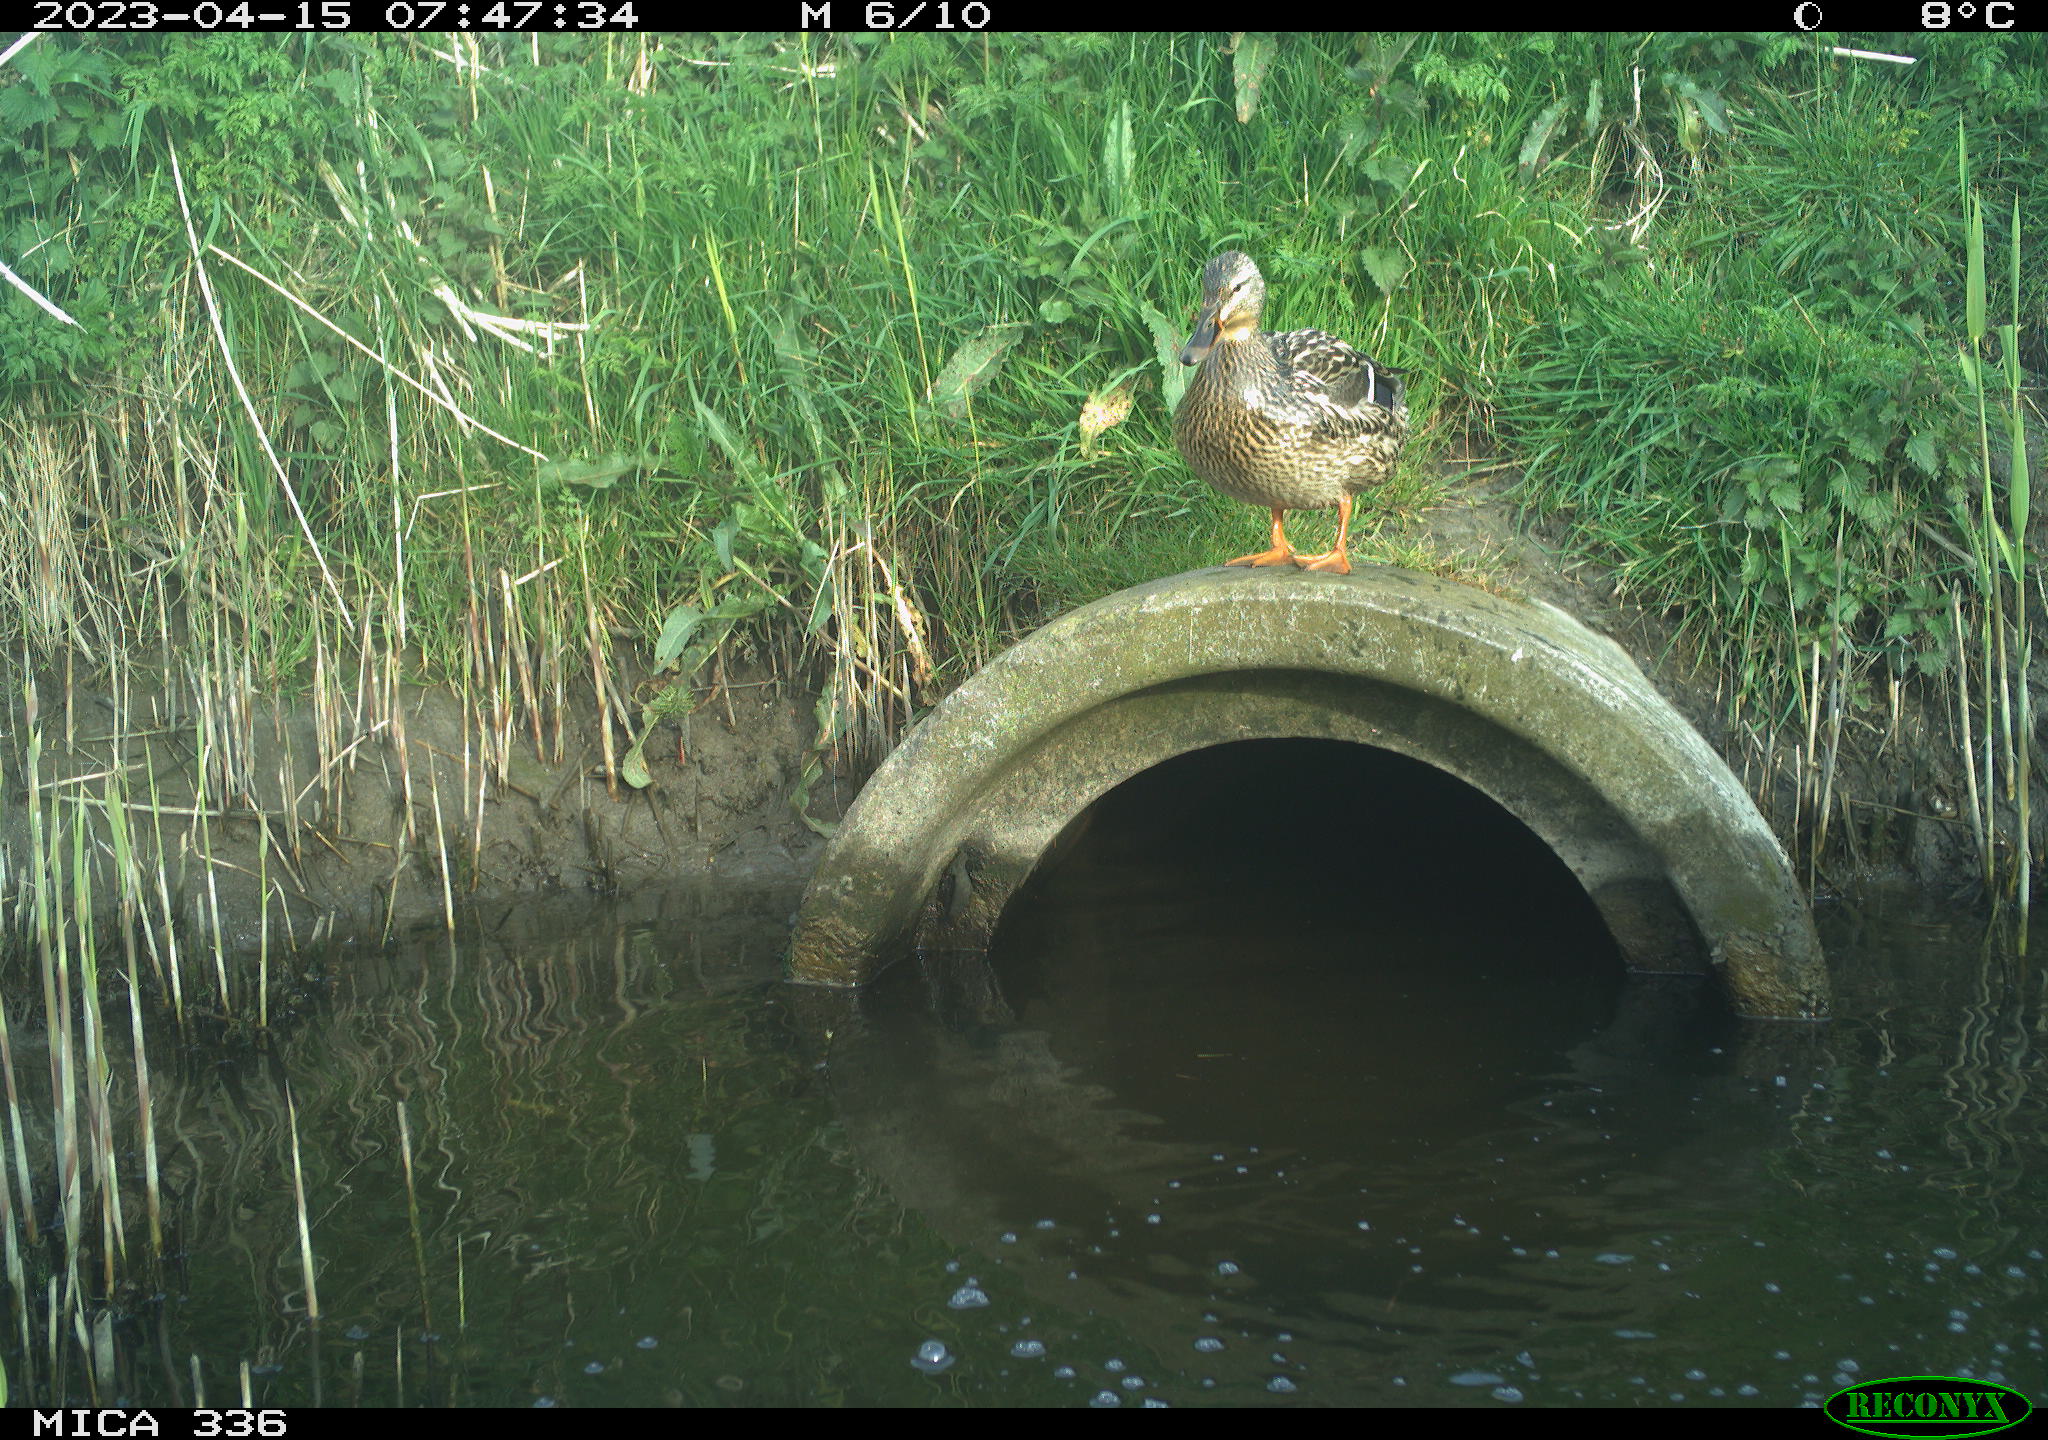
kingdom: Animalia
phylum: Chordata
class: Aves
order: Anseriformes
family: Anatidae
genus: Anas
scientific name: Anas
